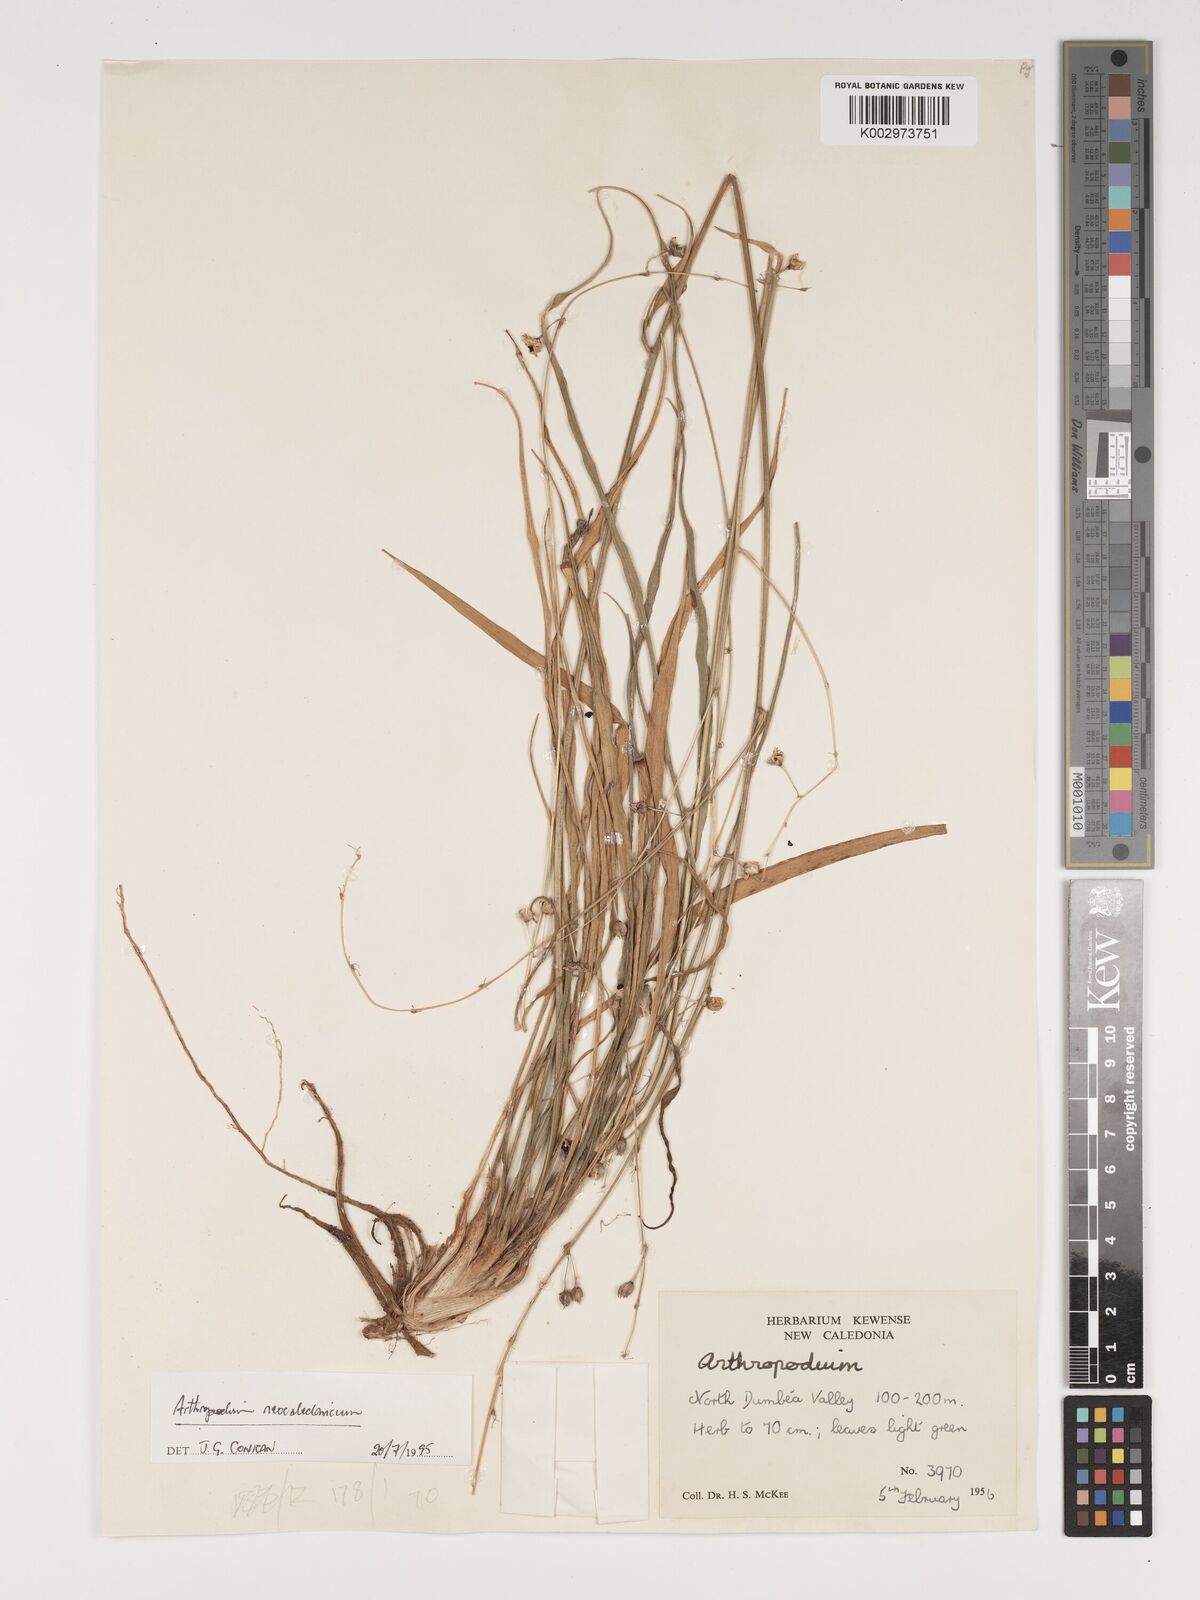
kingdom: Plantae
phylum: Tracheophyta
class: Liliopsida
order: Asparagales
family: Asparagaceae
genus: Arthropodium
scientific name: Arthropodium neocaledonicum
